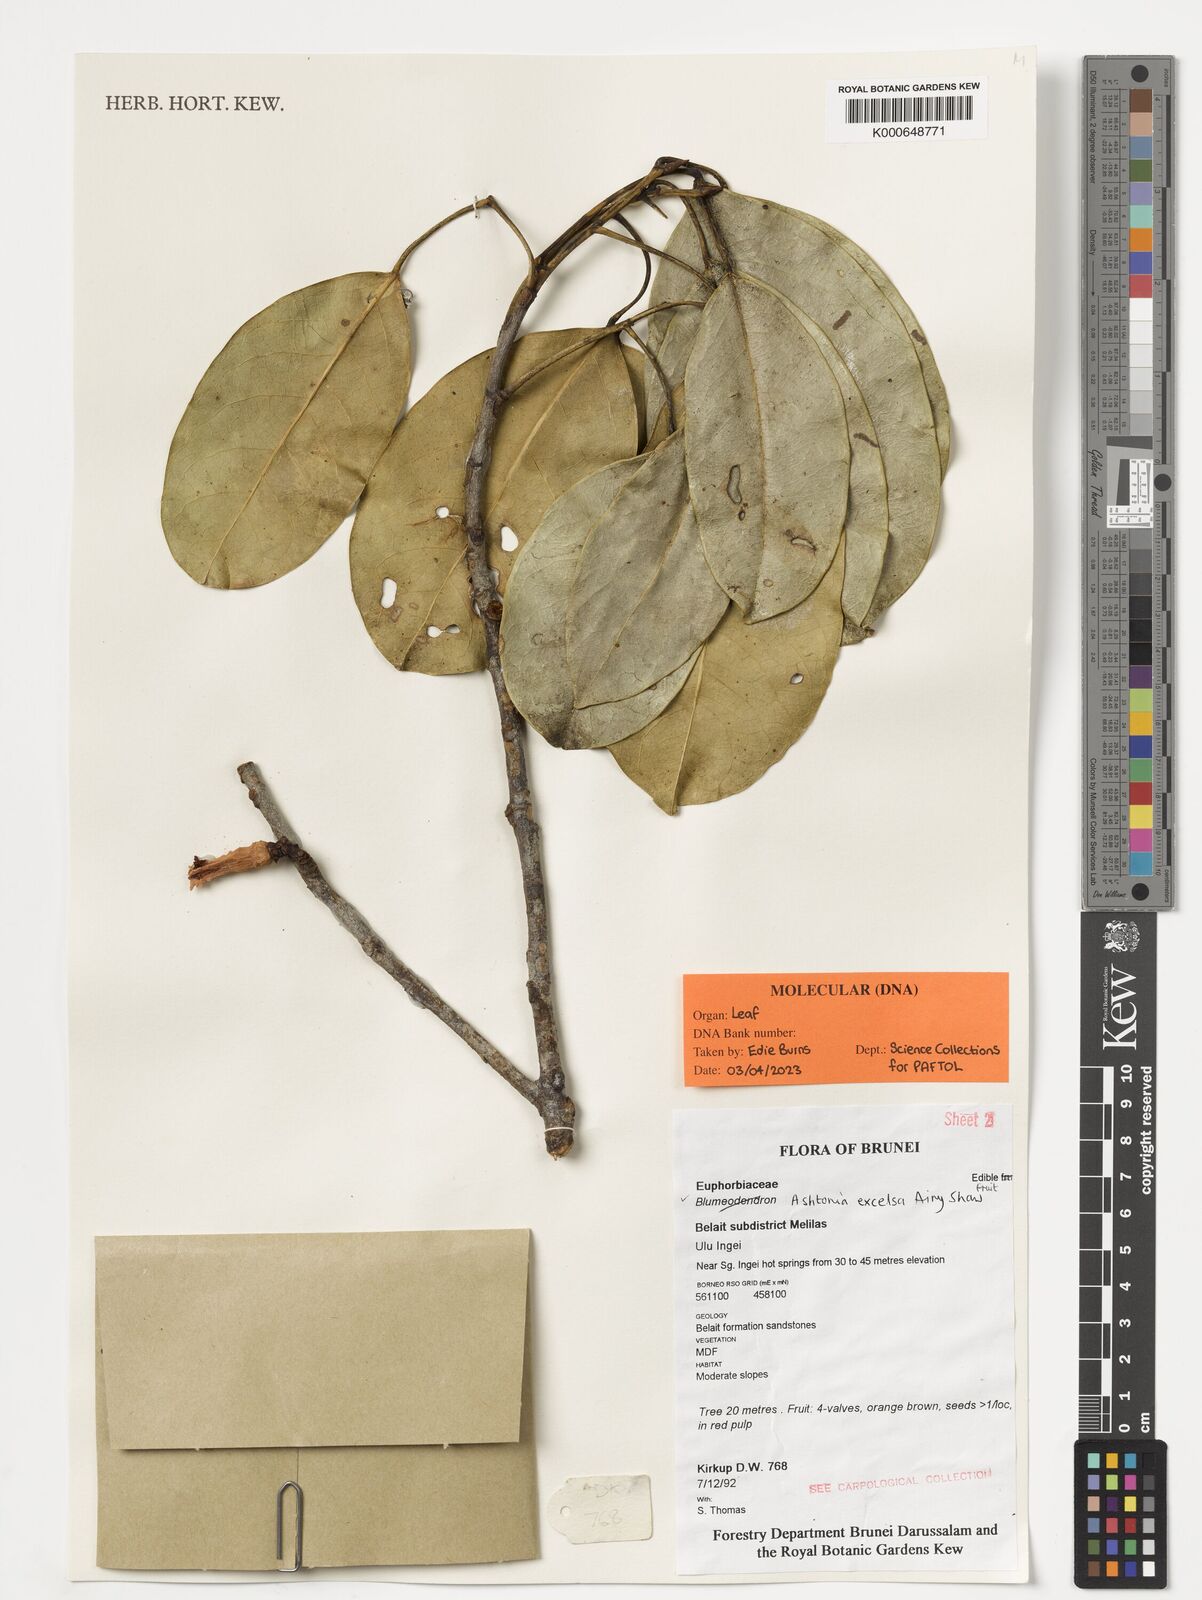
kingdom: Plantae
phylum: Tracheophyta
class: Magnoliopsida
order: Malpighiales
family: Phyllanthaceae
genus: Ashtonia
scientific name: Ashtonia excelsa
